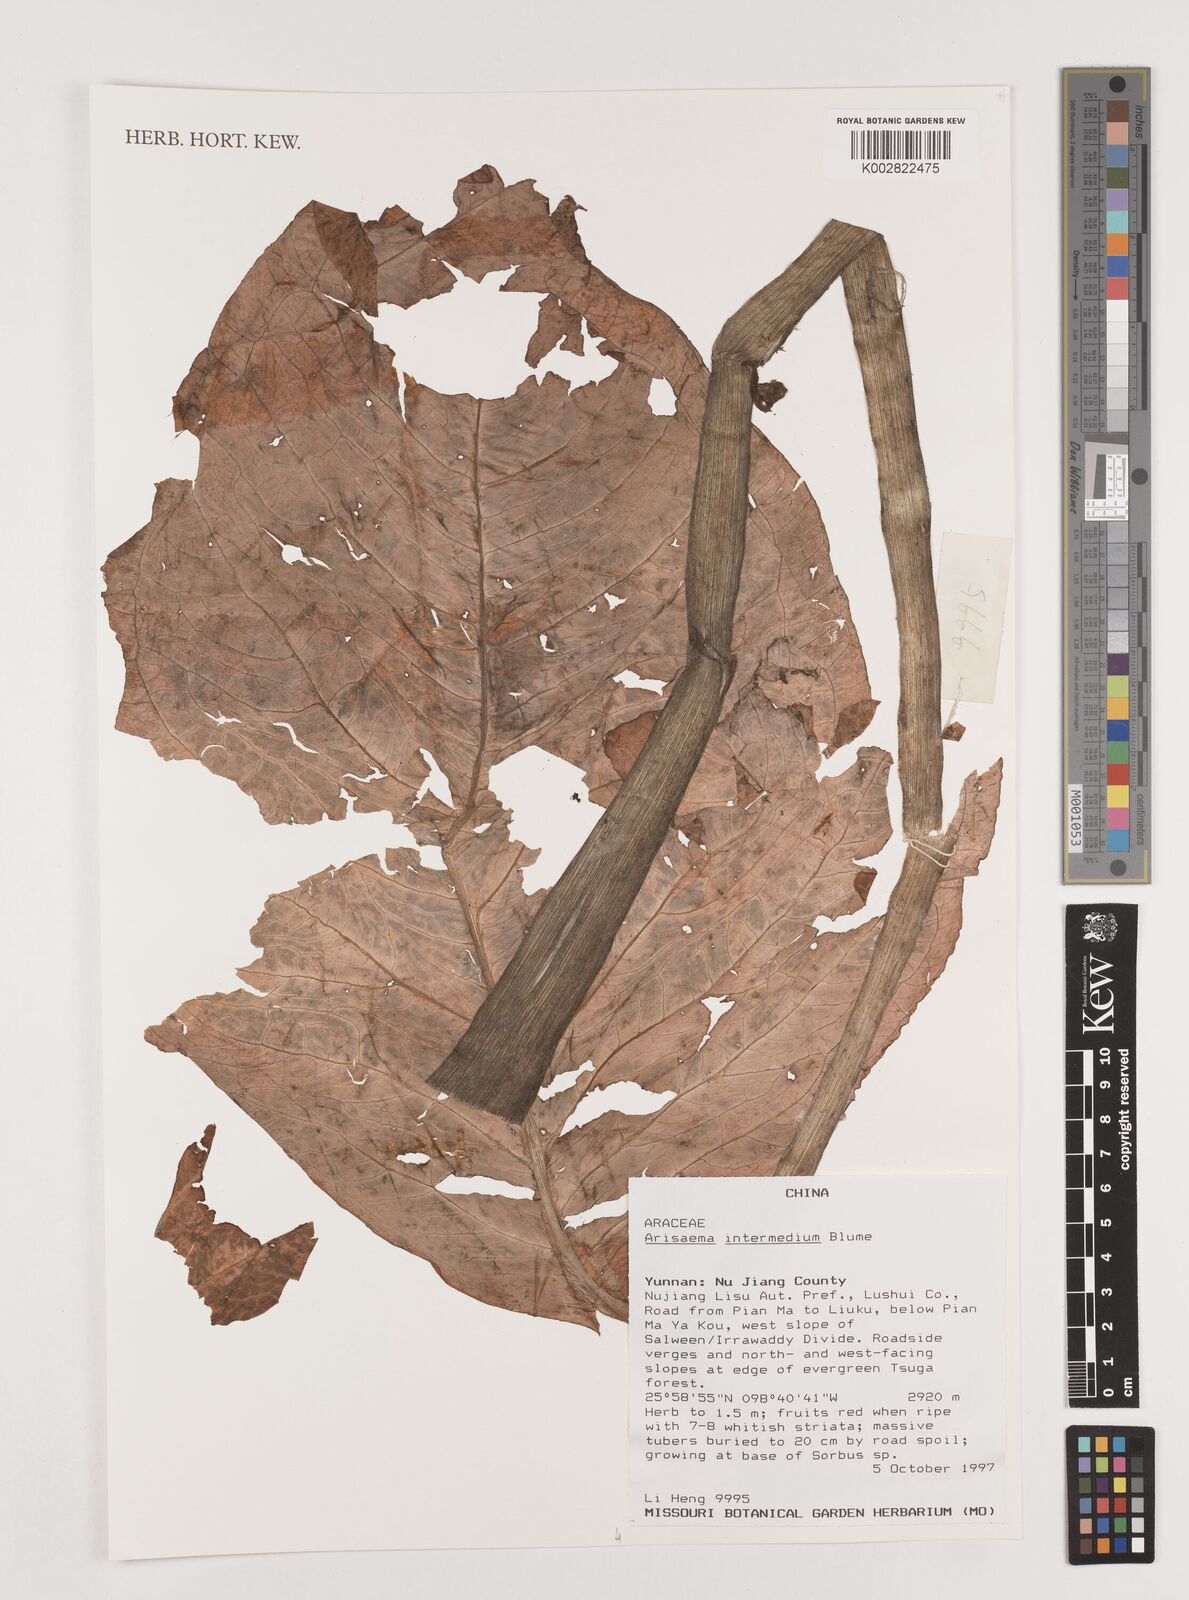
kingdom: Plantae
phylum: Tracheophyta
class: Liliopsida
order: Alismatales
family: Araceae
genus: Arisaema
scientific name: Arisaema intermedium
